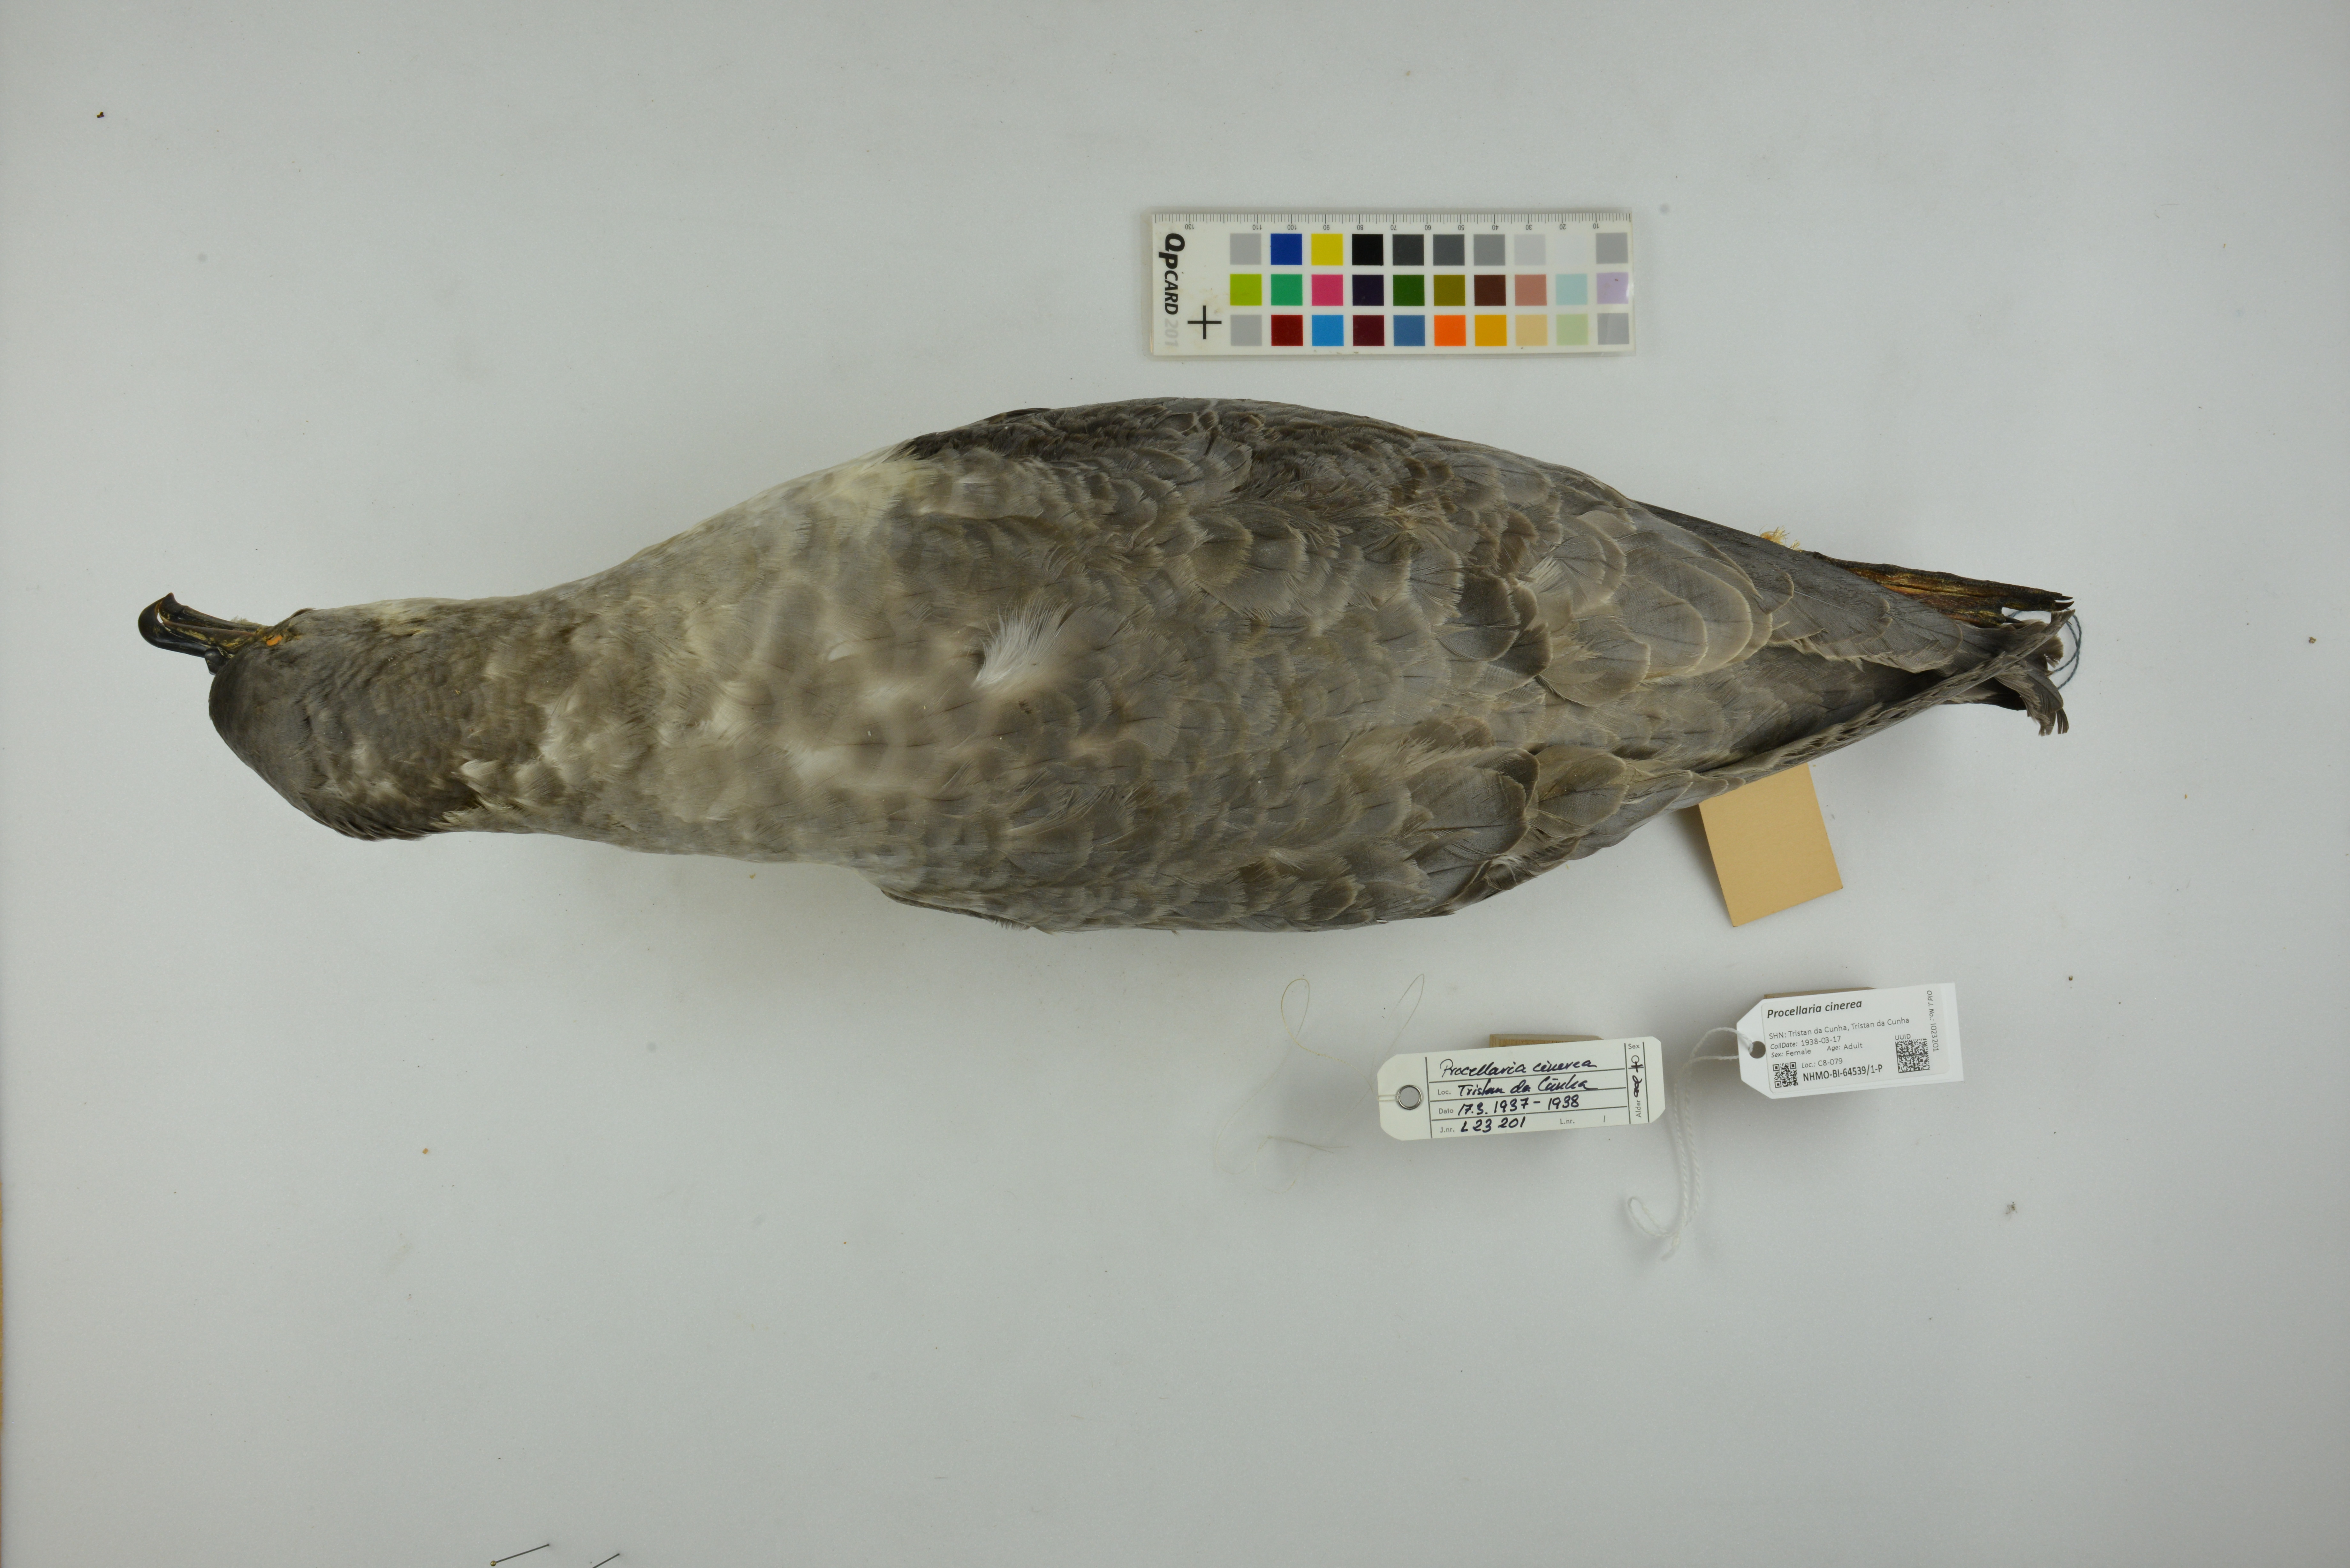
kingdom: Animalia
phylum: Chordata
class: Aves
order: Procellariiformes
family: Procellariidae
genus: Procellaria
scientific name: Procellaria cinerea
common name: Grey petrel
